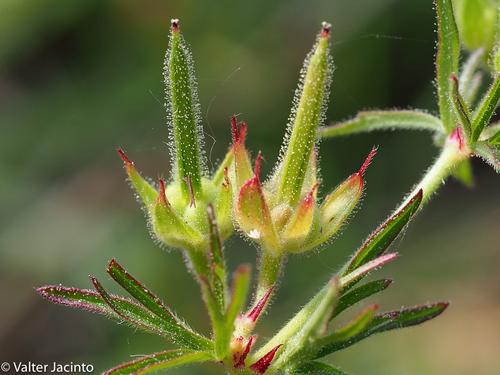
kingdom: Plantae
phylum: Tracheophyta
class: Magnoliopsida
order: Geraniales
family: Geraniaceae
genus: Geranium
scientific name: Geranium dissectum
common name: Cut-leaved crane's-bill
